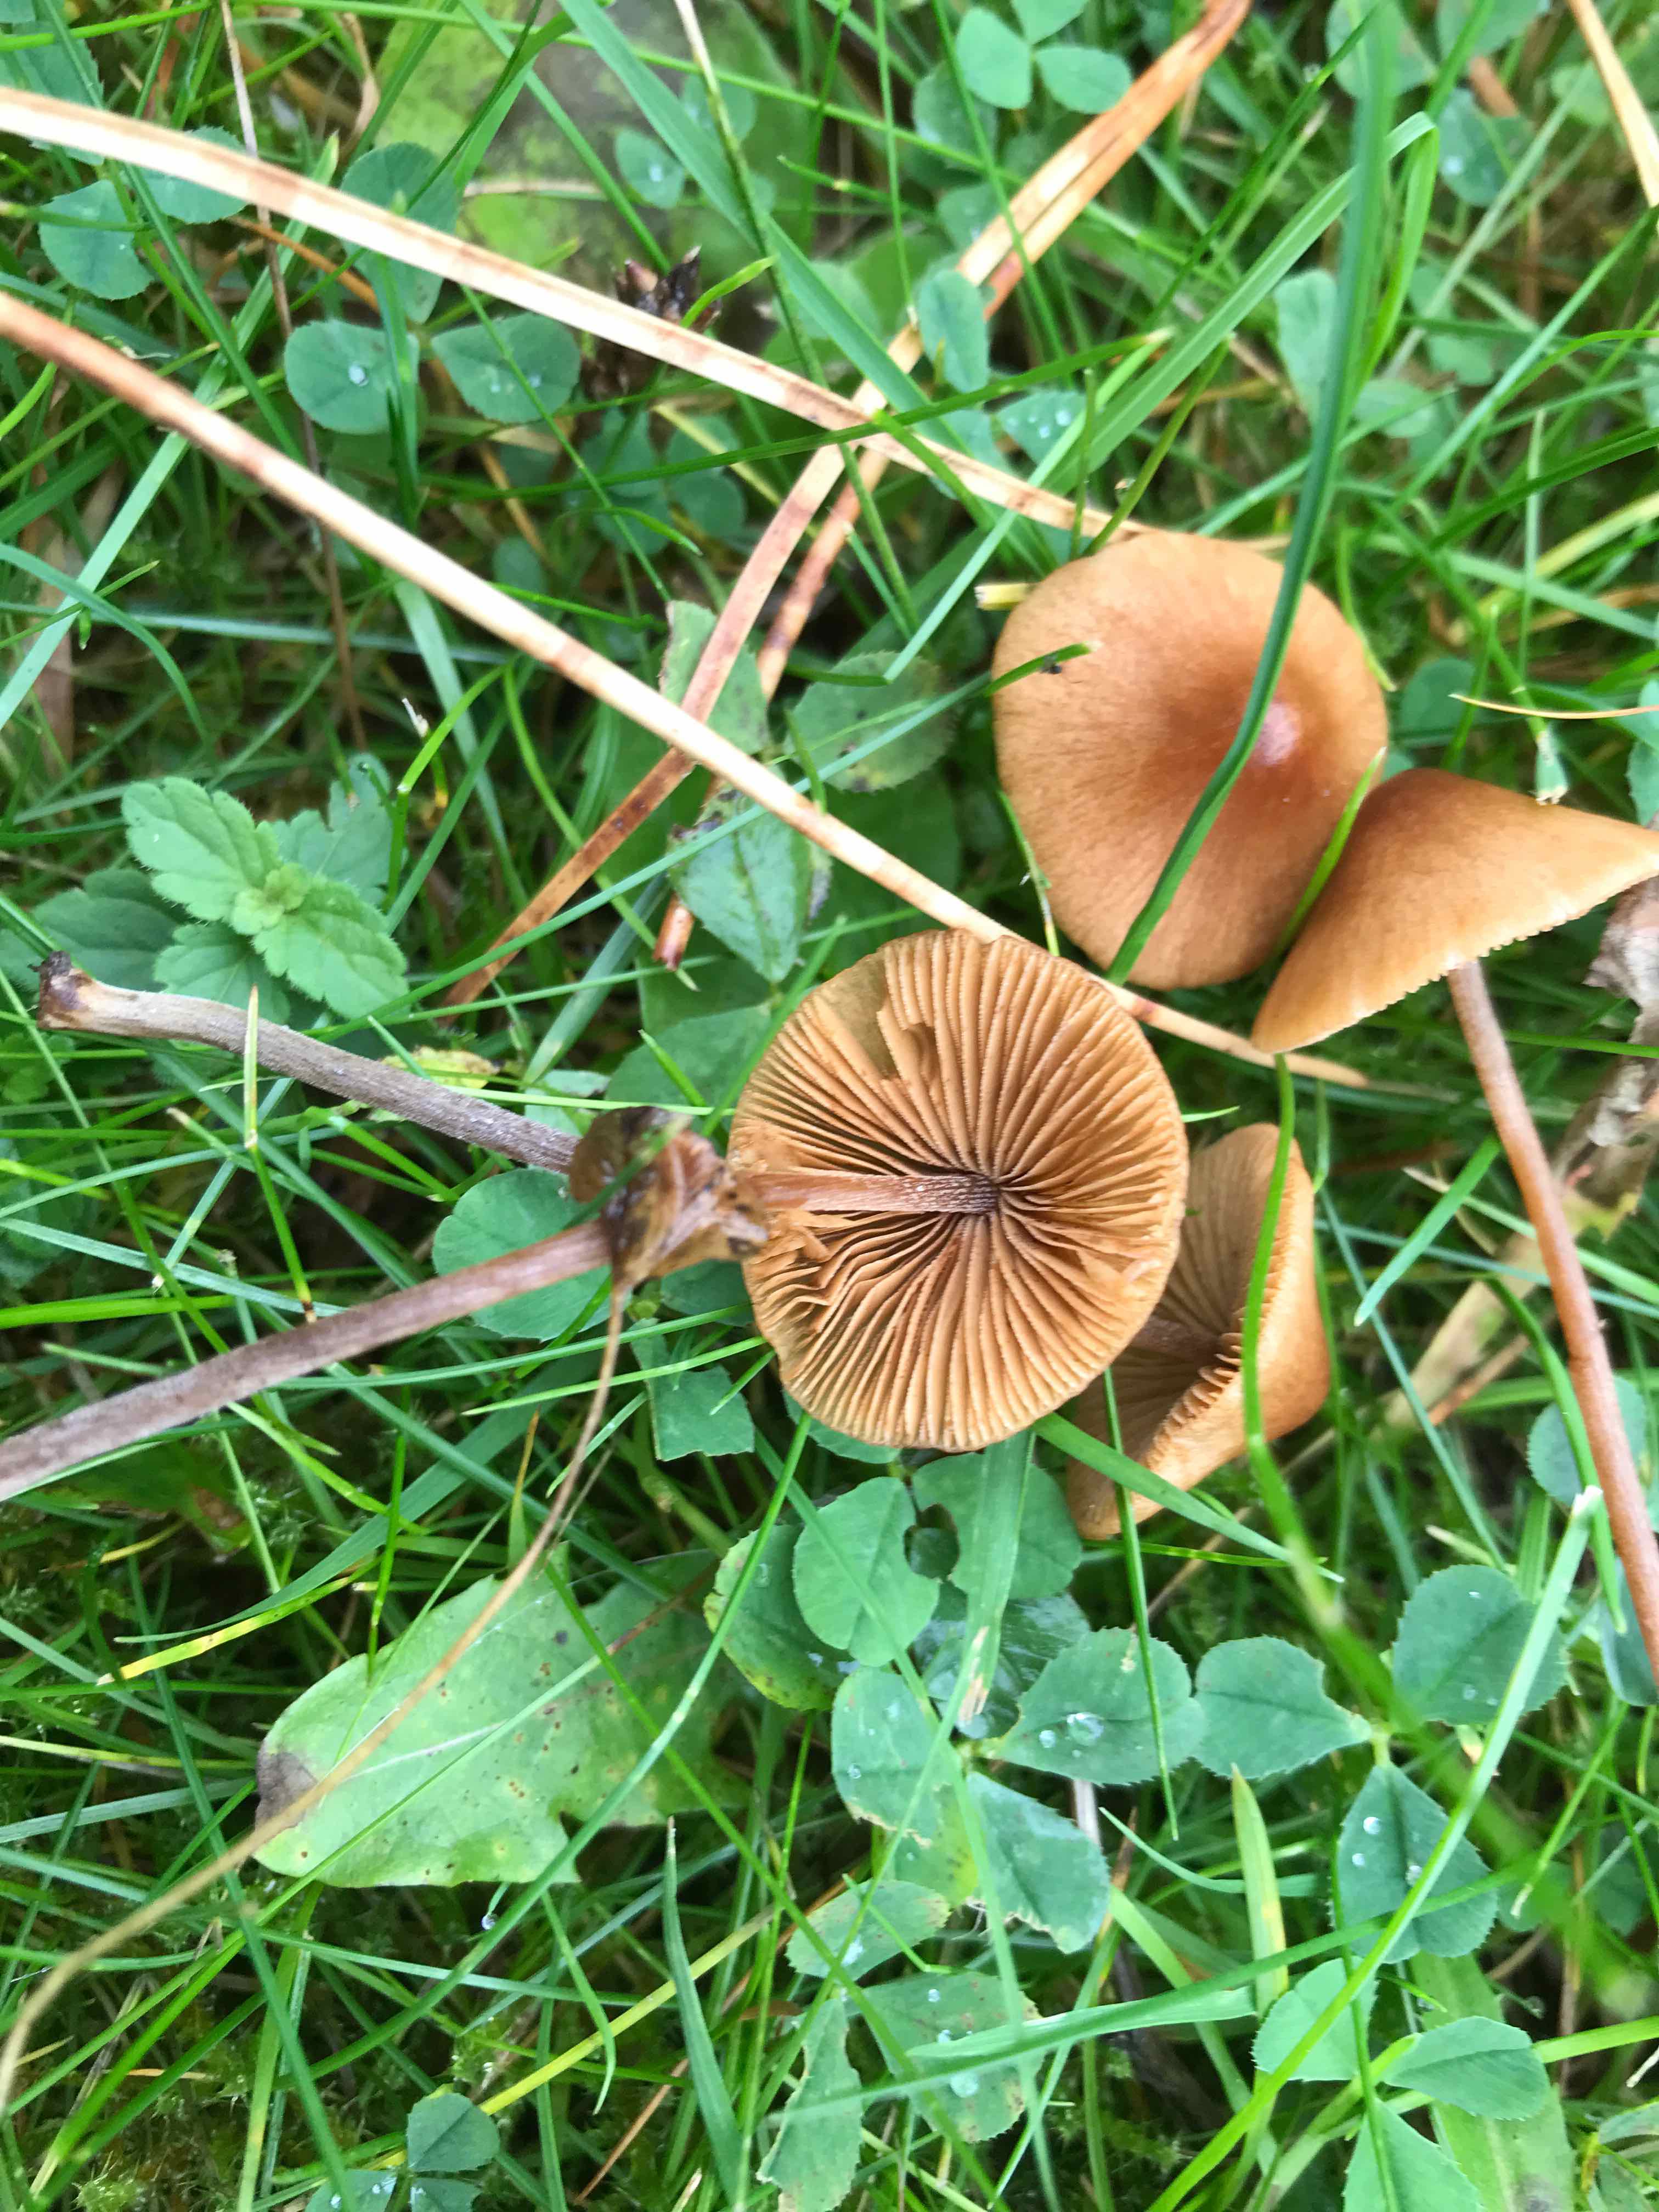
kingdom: Fungi
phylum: Basidiomycota
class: Agaricomycetes
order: Agaricales
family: Bolbitiaceae
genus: Conocybe
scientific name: Conocybe
